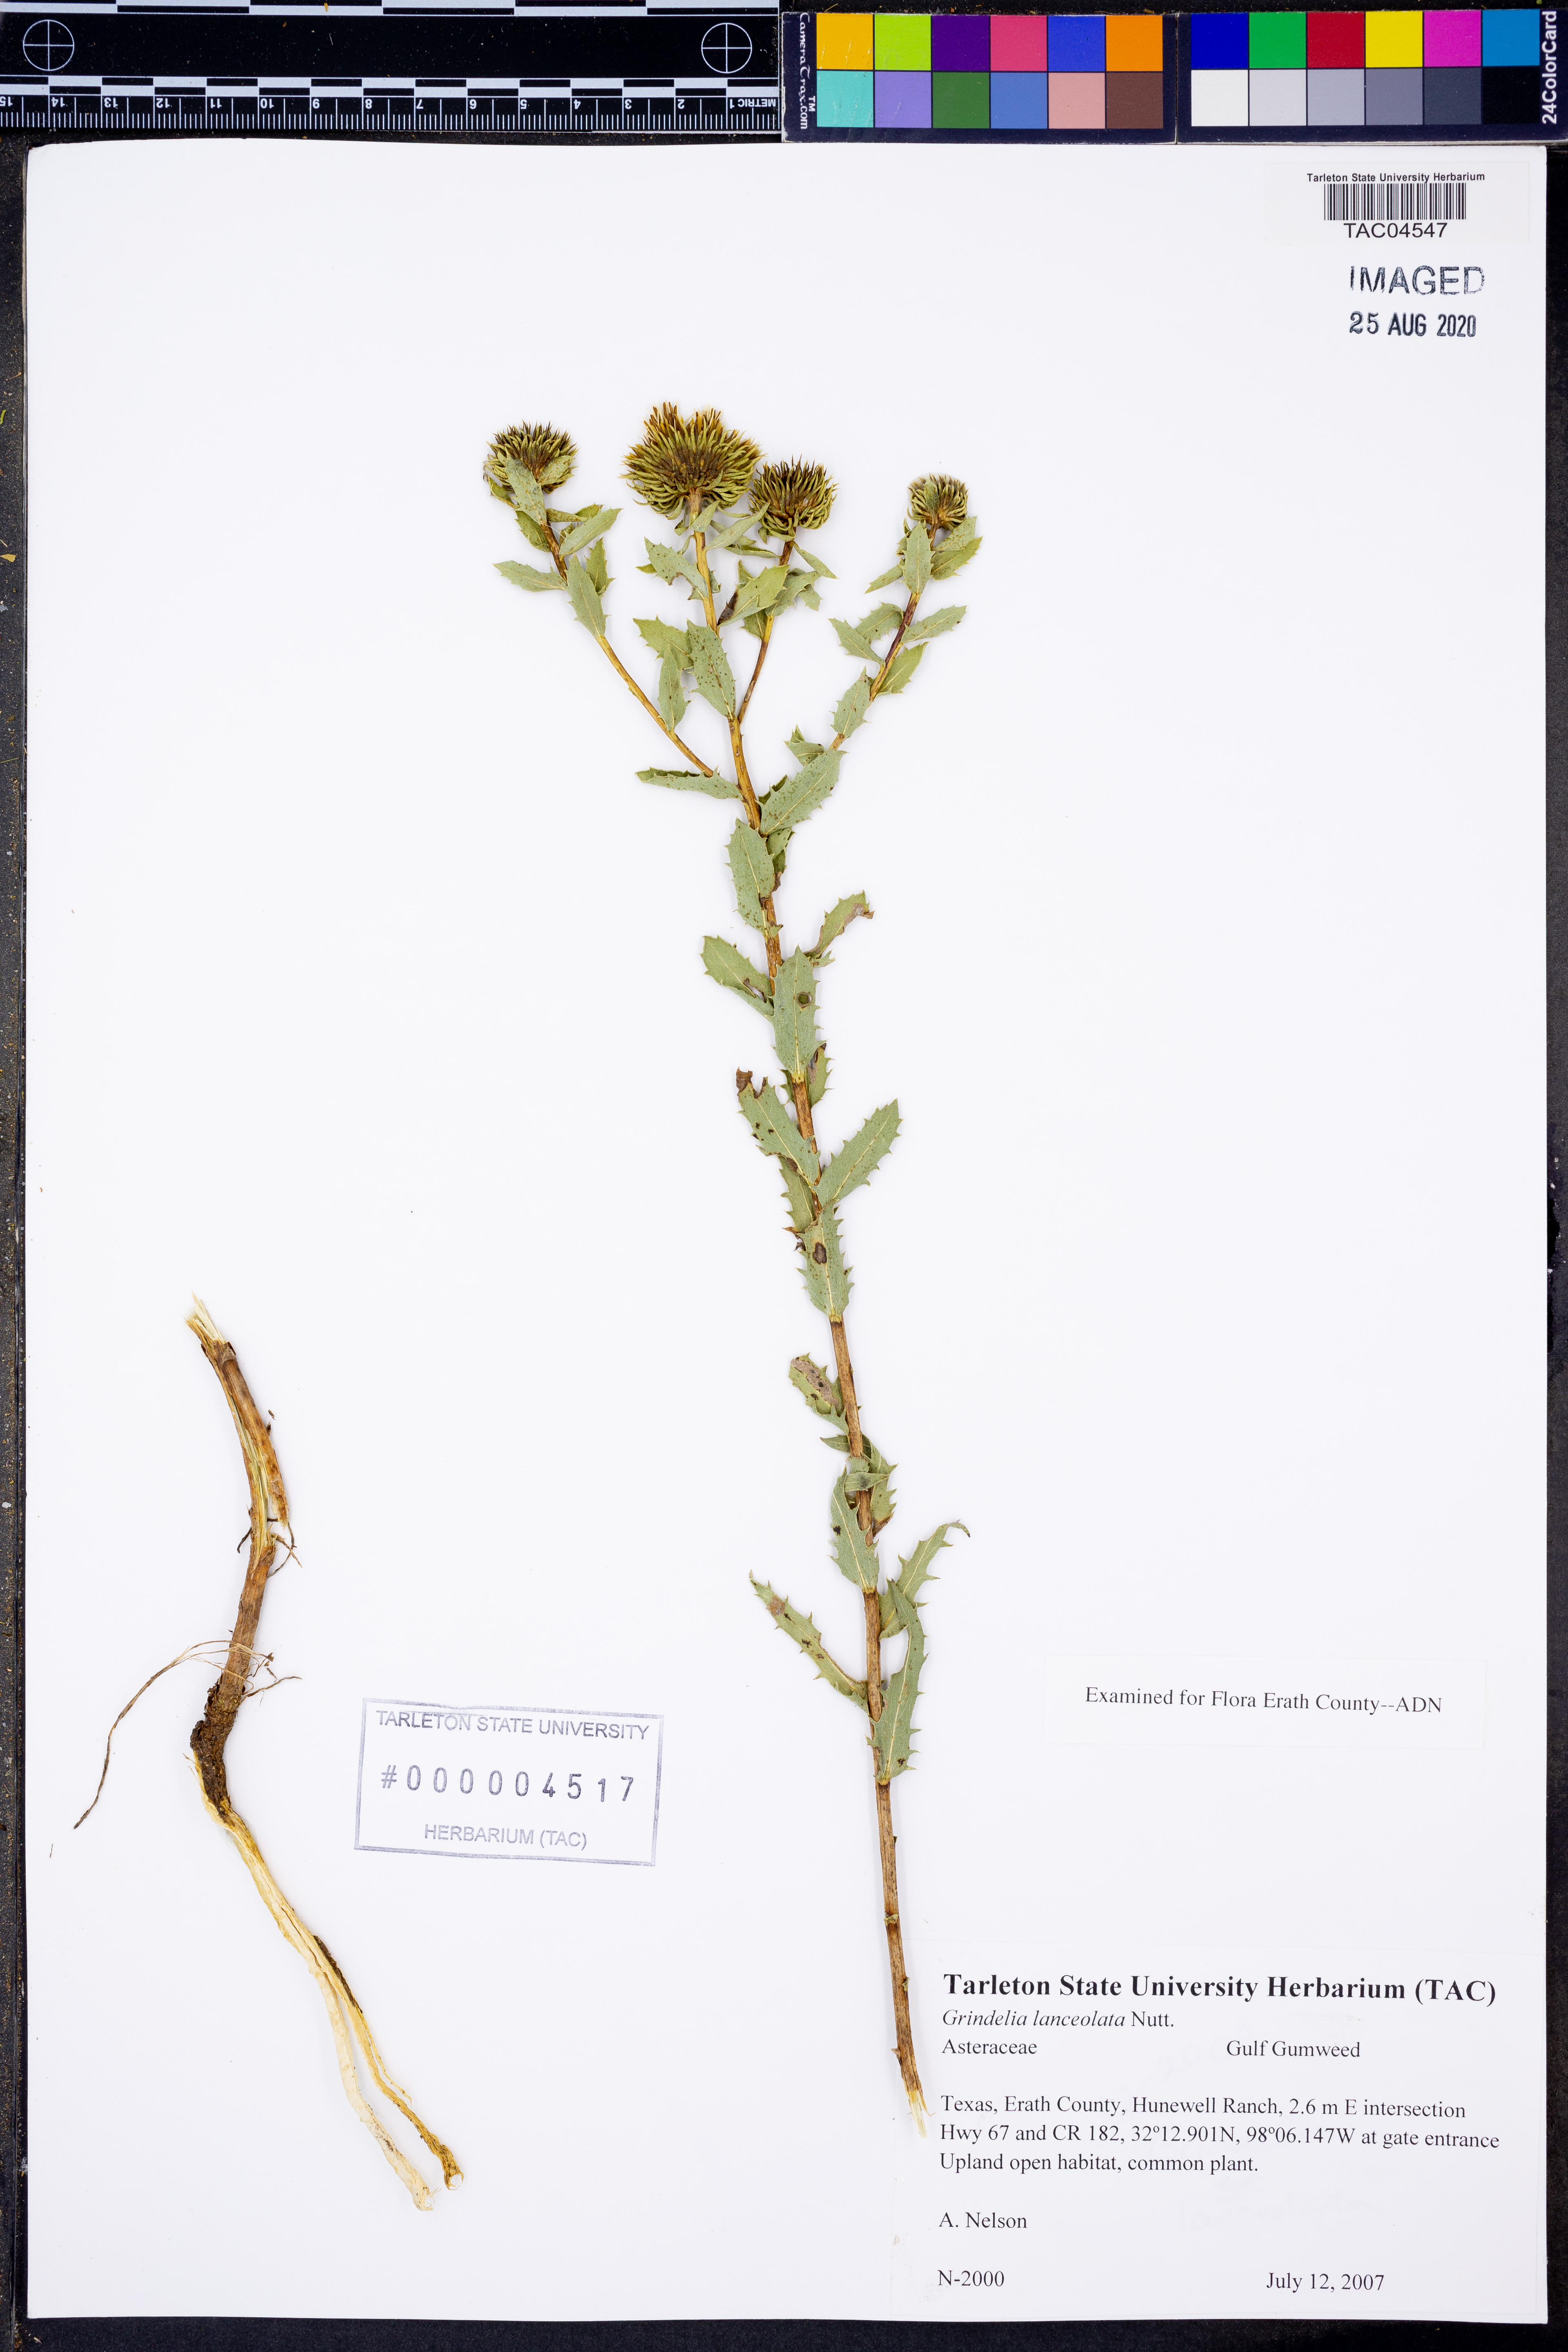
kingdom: Plantae
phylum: Tracheophyta
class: Magnoliopsida
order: Asterales
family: Asteraceae
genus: Grindelia
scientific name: Grindelia lanceolata
